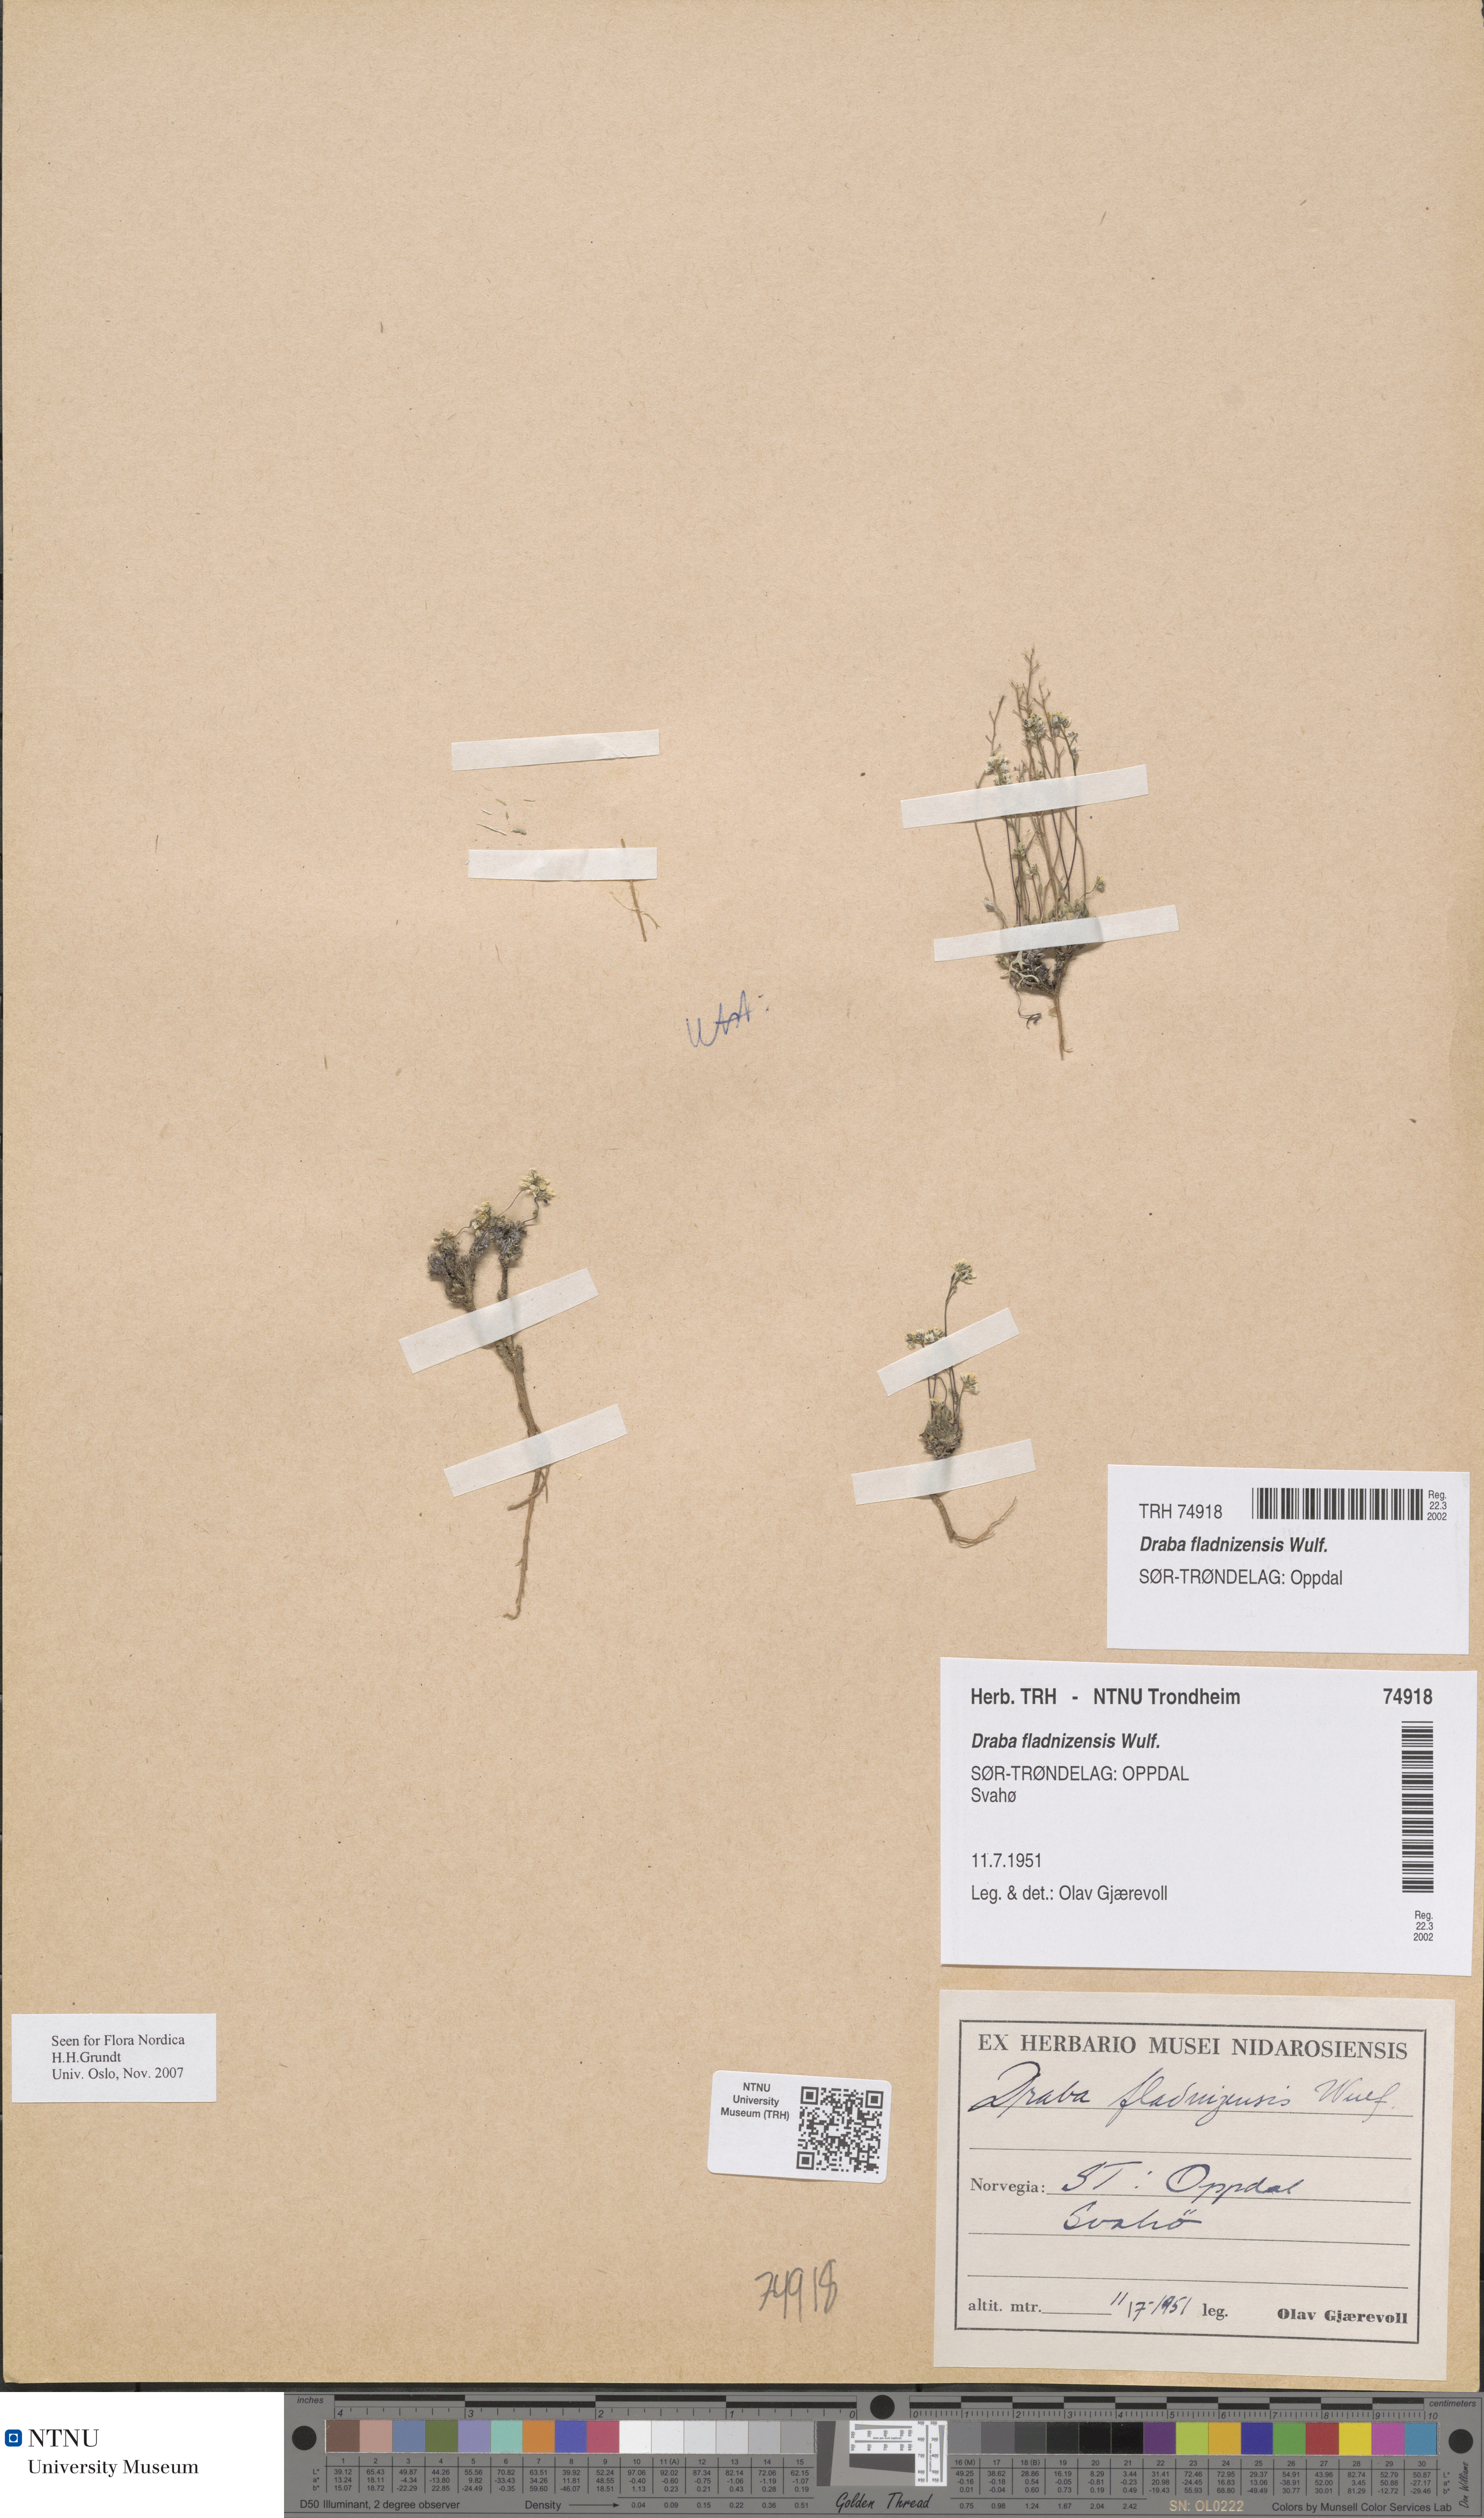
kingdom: Plantae
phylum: Tracheophyta
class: Magnoliopsida
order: Brassicales
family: Brassicaceae
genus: Draba
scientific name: Draba fladnizensis
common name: Austrian draba
